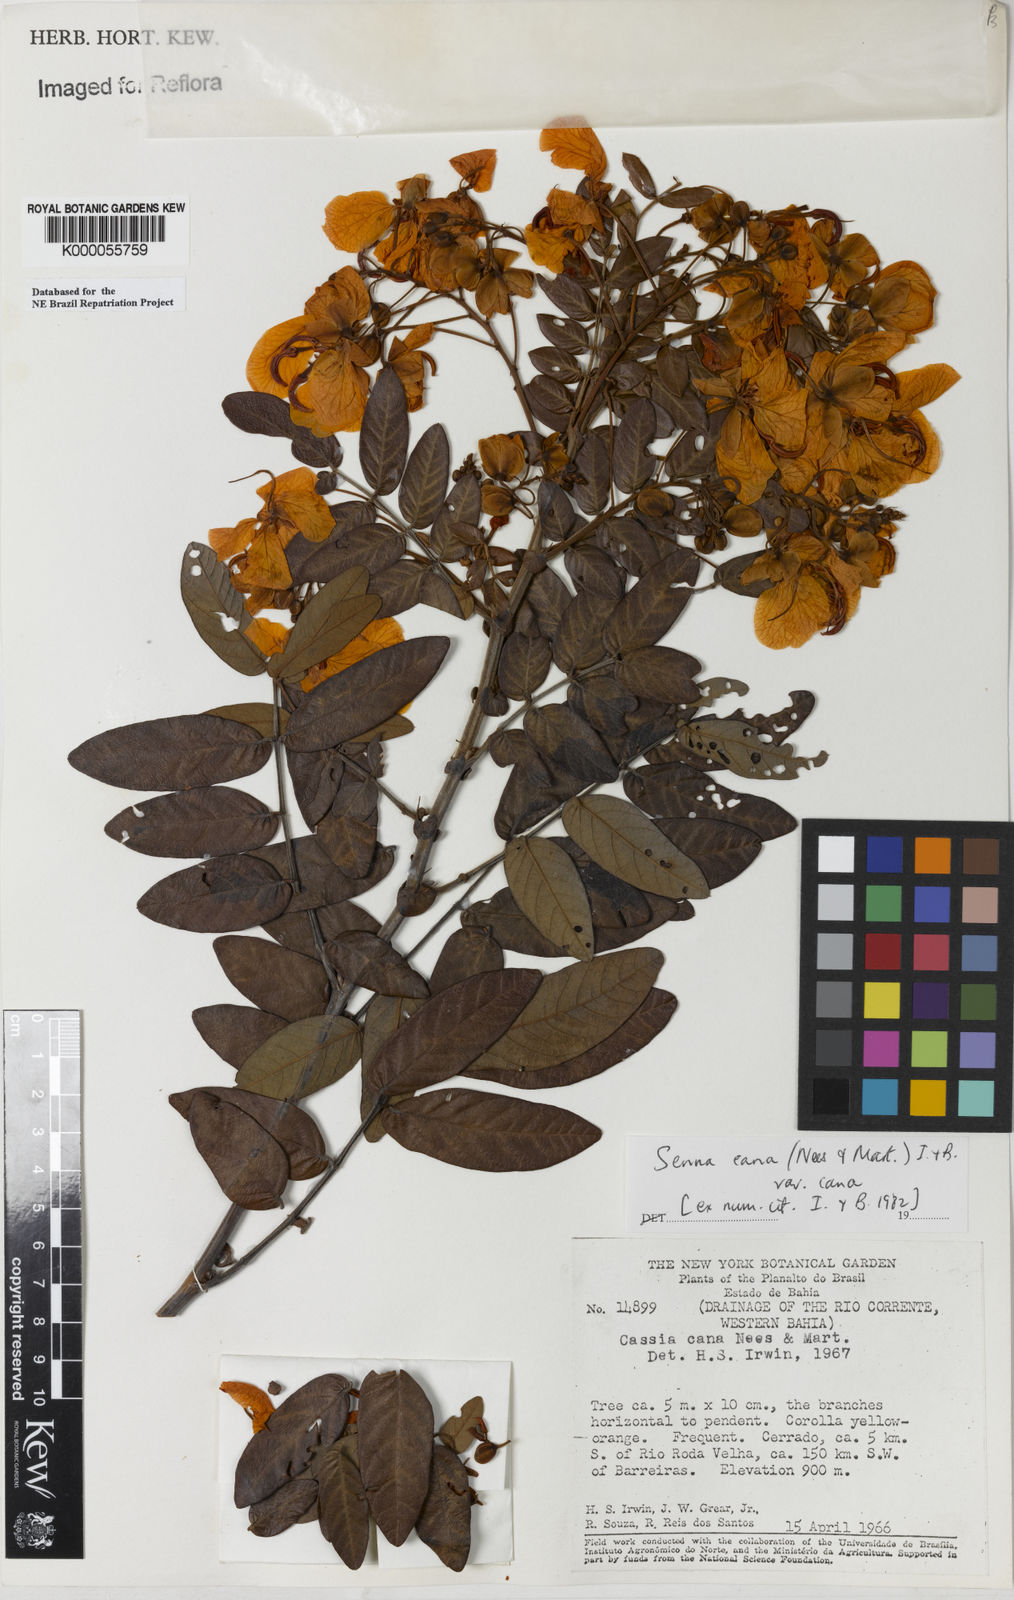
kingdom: Plantae
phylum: Tracheophyta
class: Magnoliopsida
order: Fabales
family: Fabaceae
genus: Senna
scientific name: Senna cana
